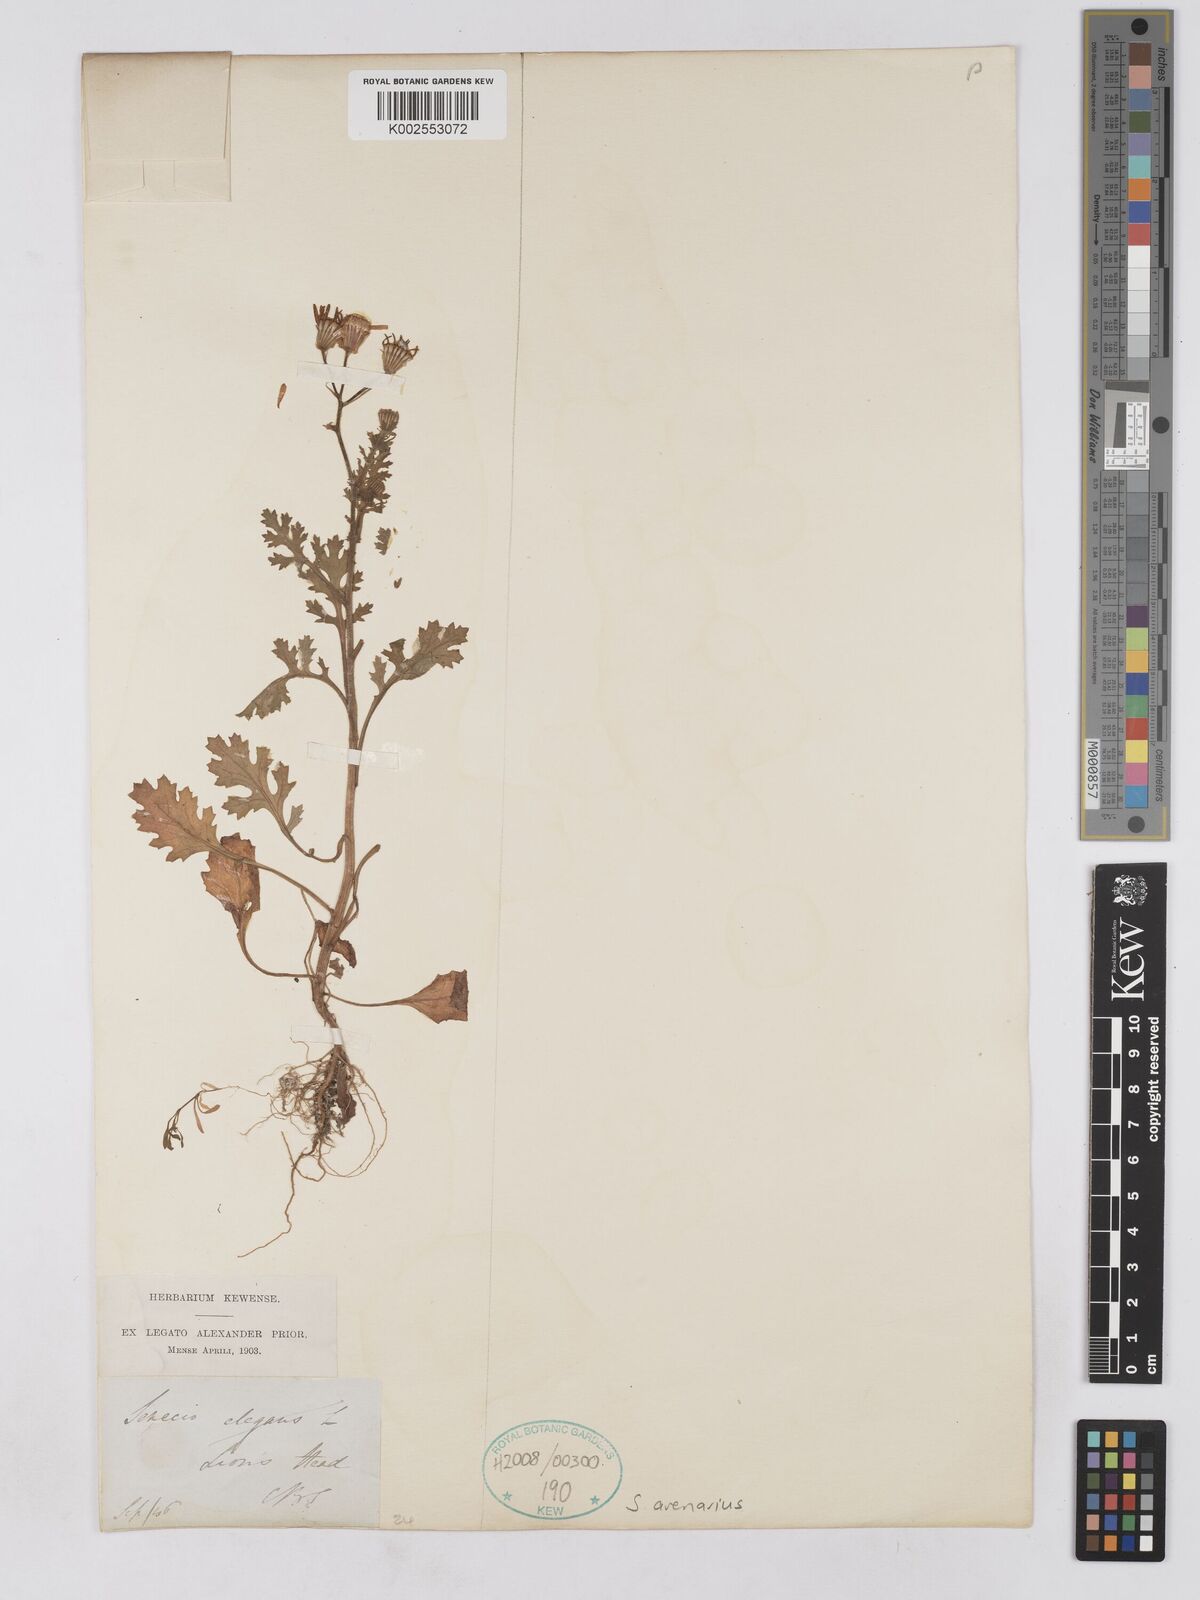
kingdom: Plantae
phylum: Tracheophyta
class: Magnoliopsida
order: Asterales
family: Asteraceae
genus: Senecio
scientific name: Senecio arenarius
